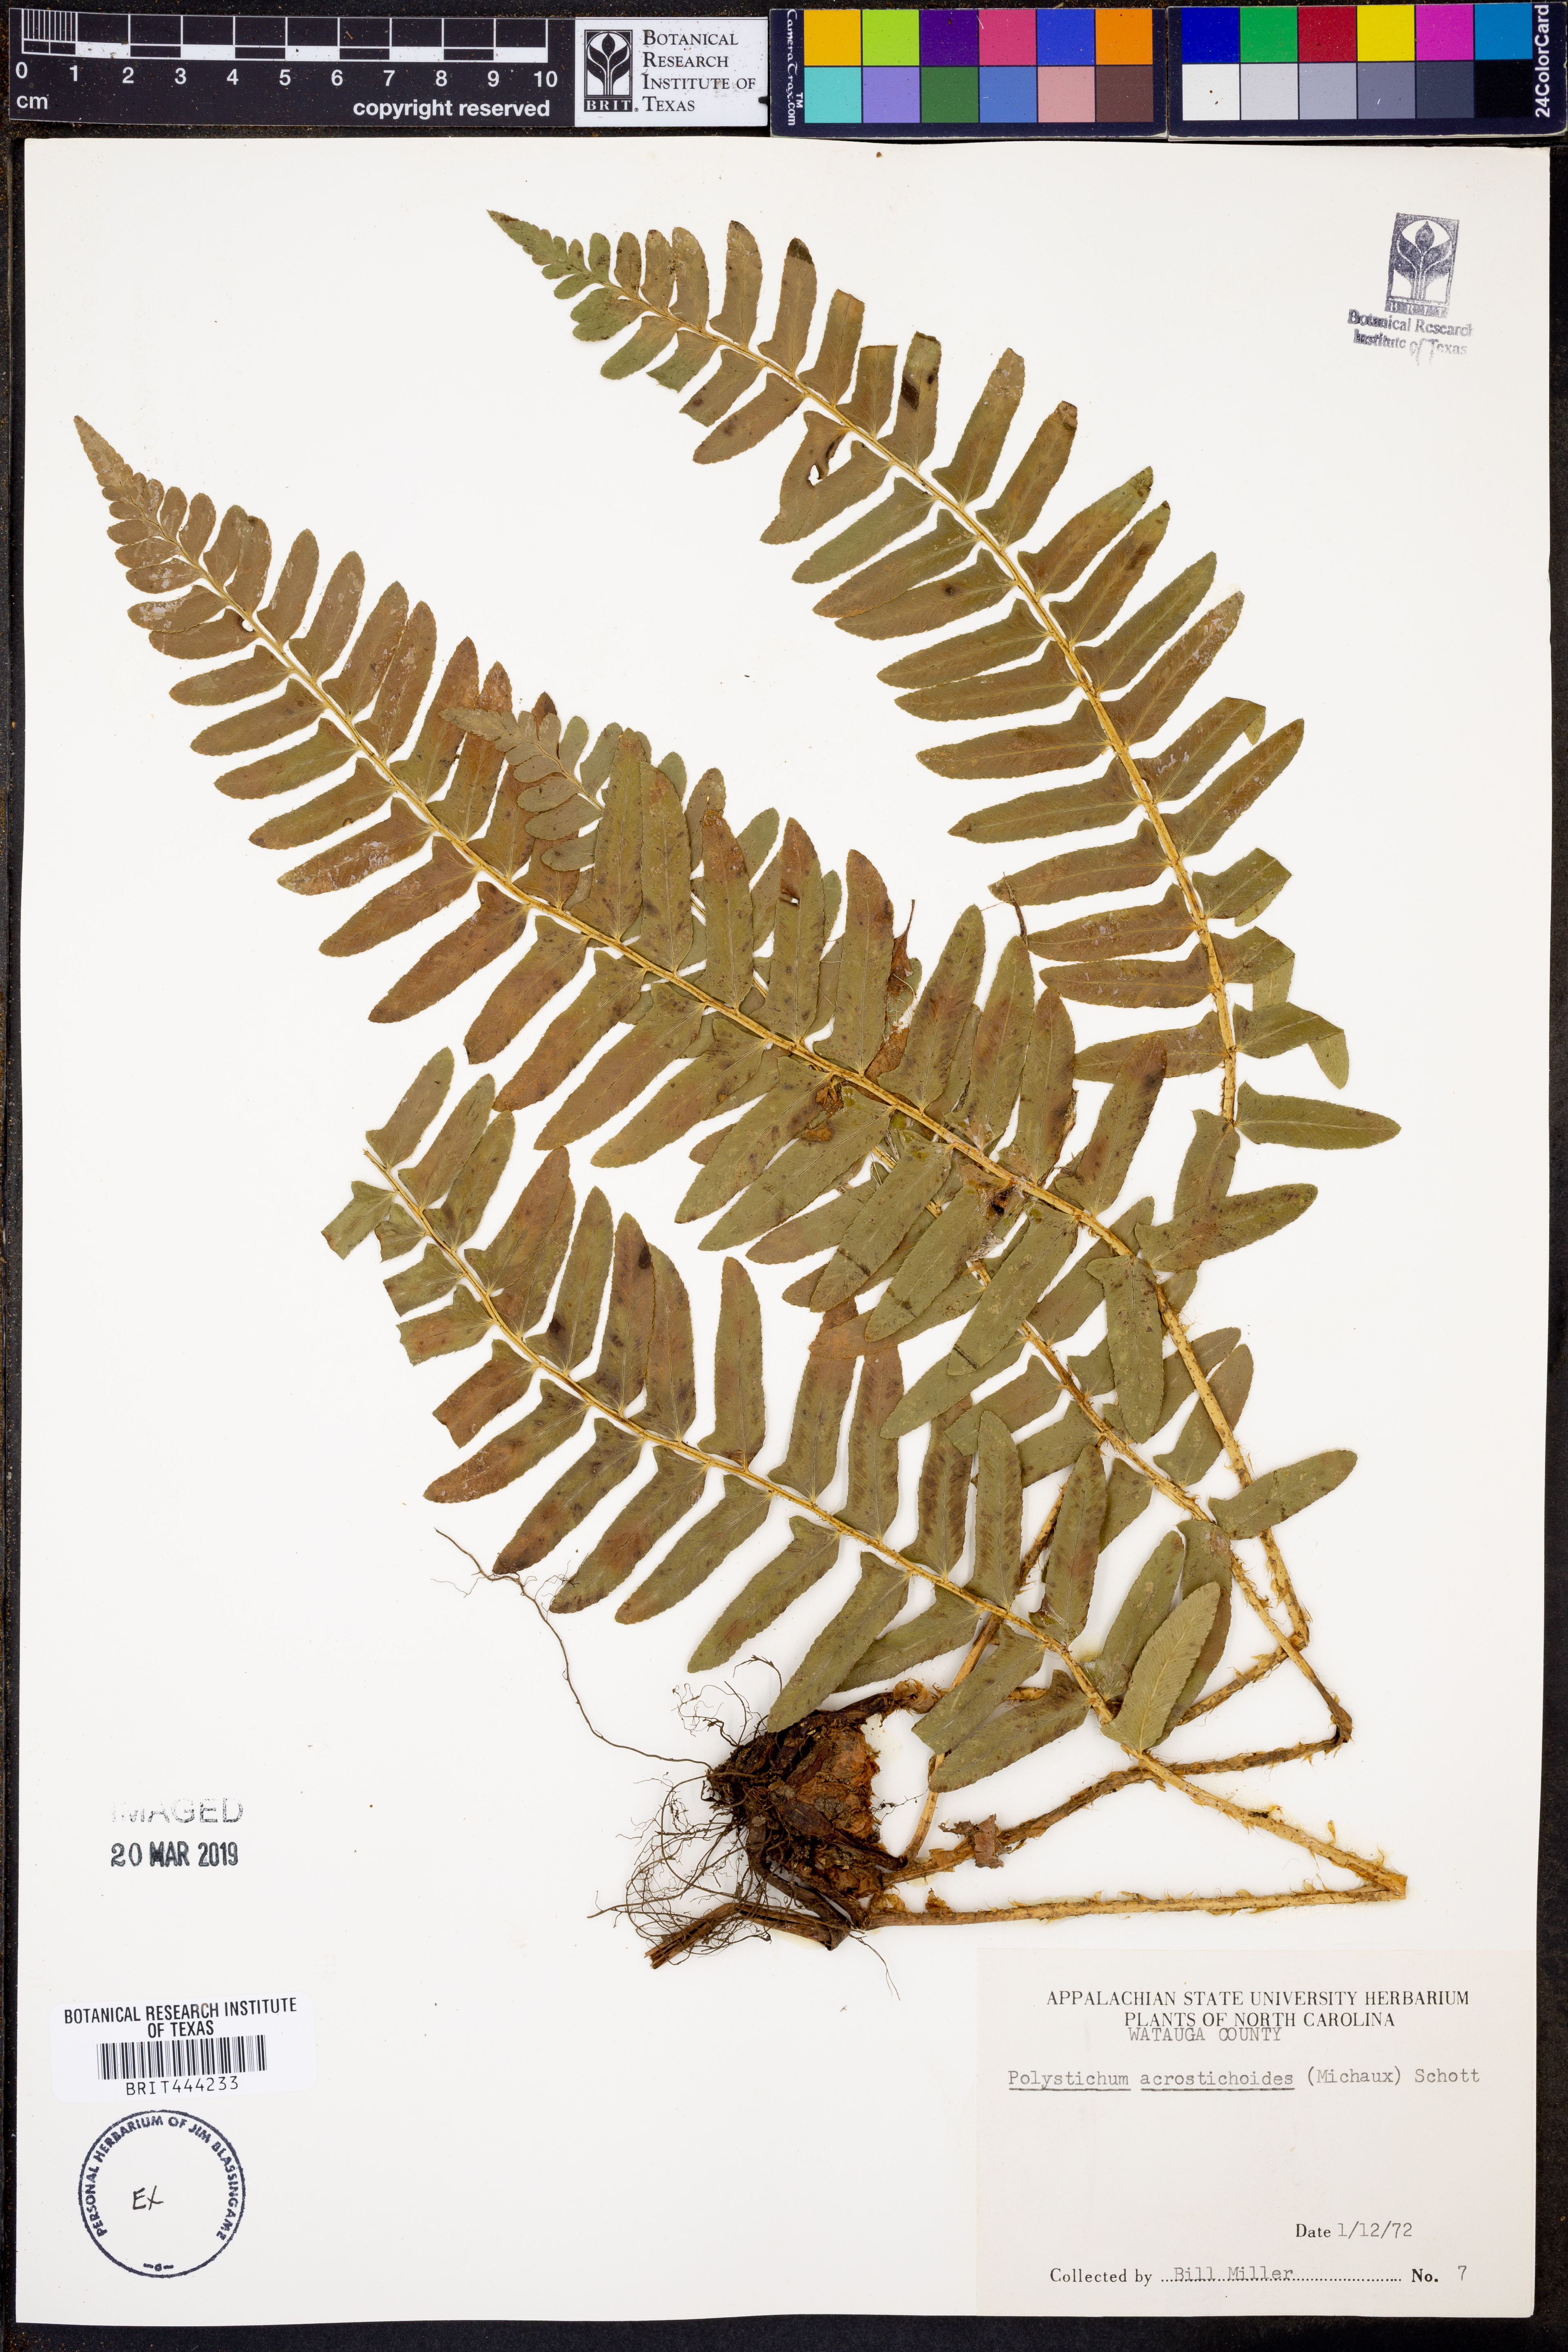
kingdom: Plantae
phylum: Tracheophyta
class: Polypodiopsida
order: Polypodiales
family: Dryopteridaceae
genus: Polystichum
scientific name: Polystichum acrostichoides
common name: Christmas fern
